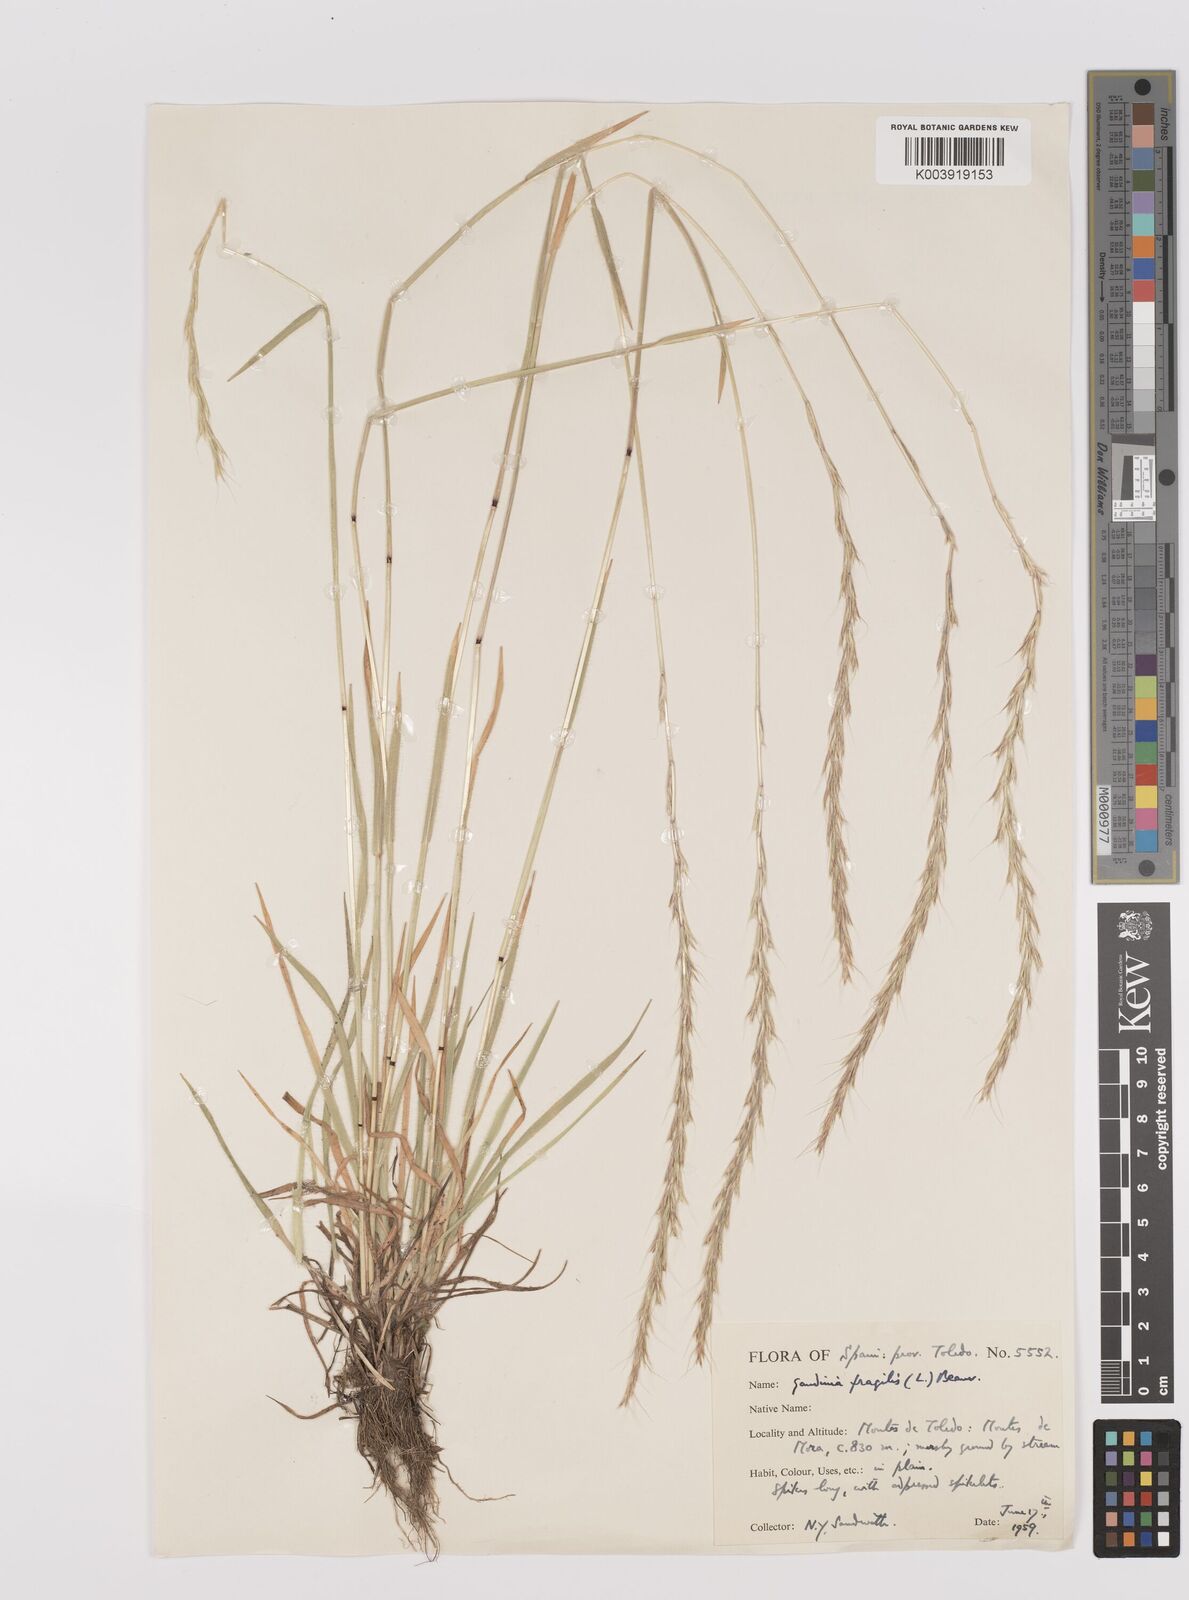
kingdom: Plantae
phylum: Tracheophyta
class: Liliopsida
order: Poales
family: Poaceae
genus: Gaudinia
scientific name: Gaudinia fragilis
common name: French oat-grass
